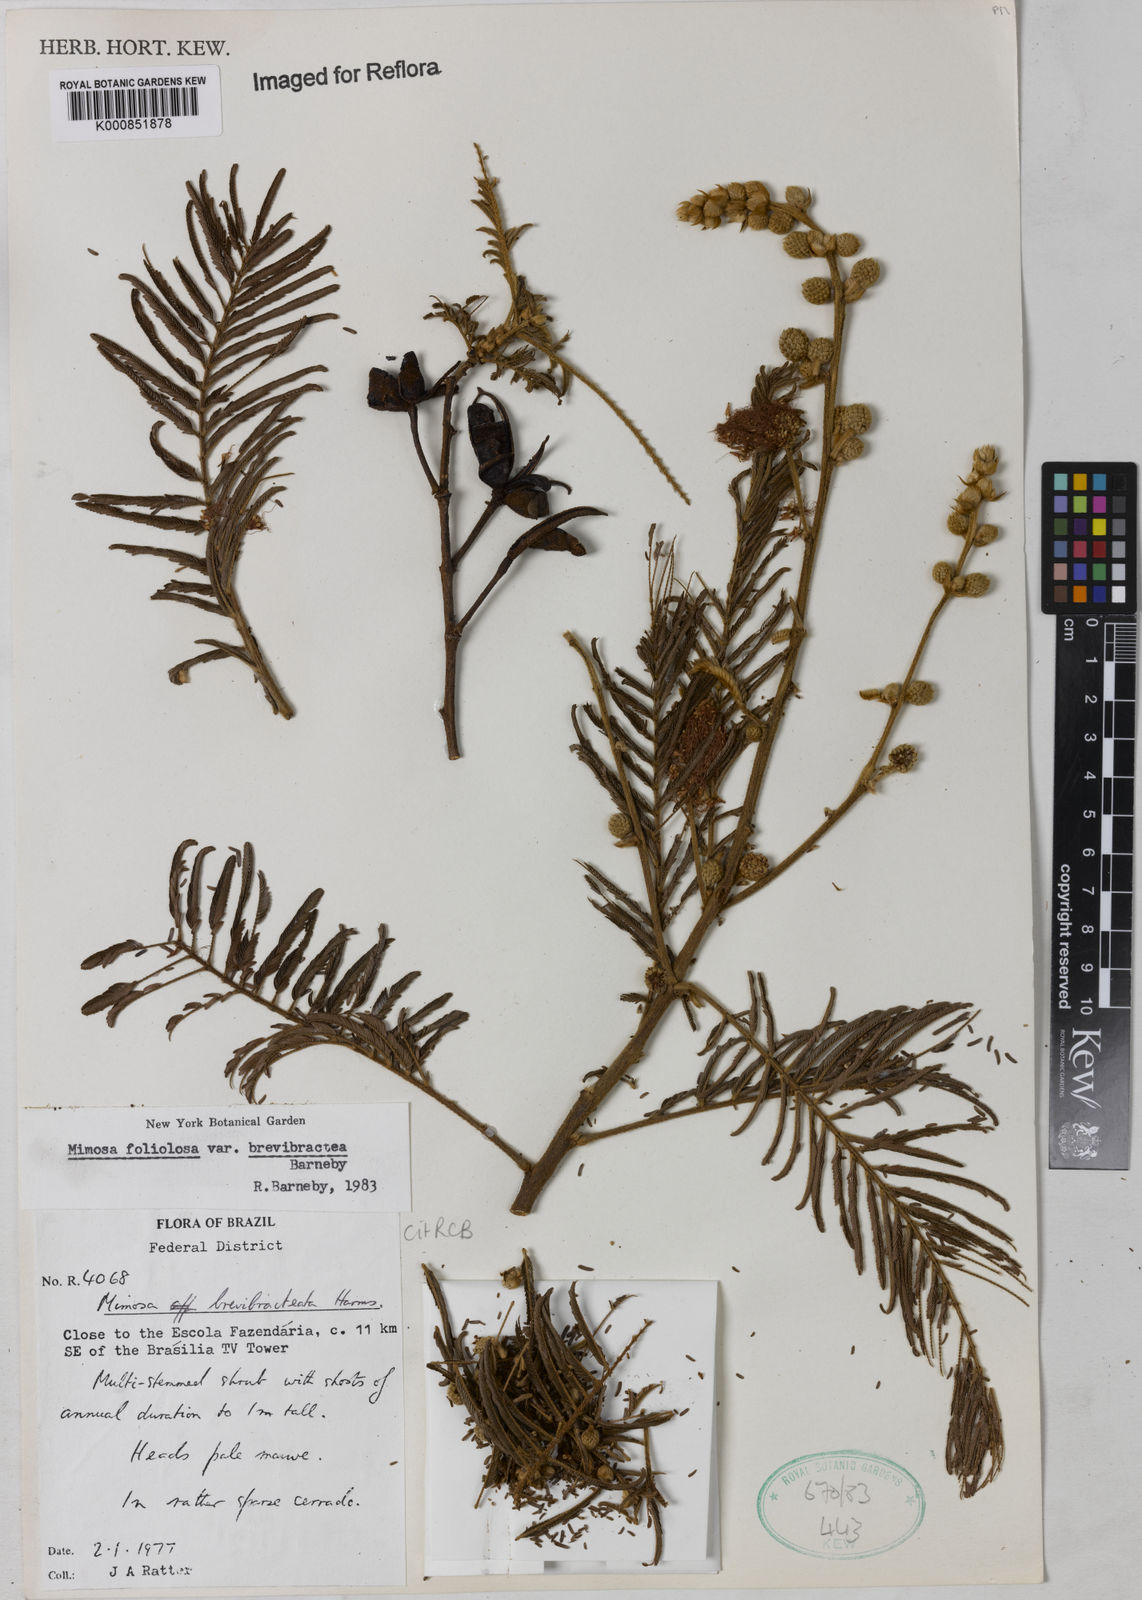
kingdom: Plantae
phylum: Tracheophyta
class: Magnoliopsida
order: Fabales
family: Fabaceae
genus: Mimosa
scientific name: Mimosa foliolosa
